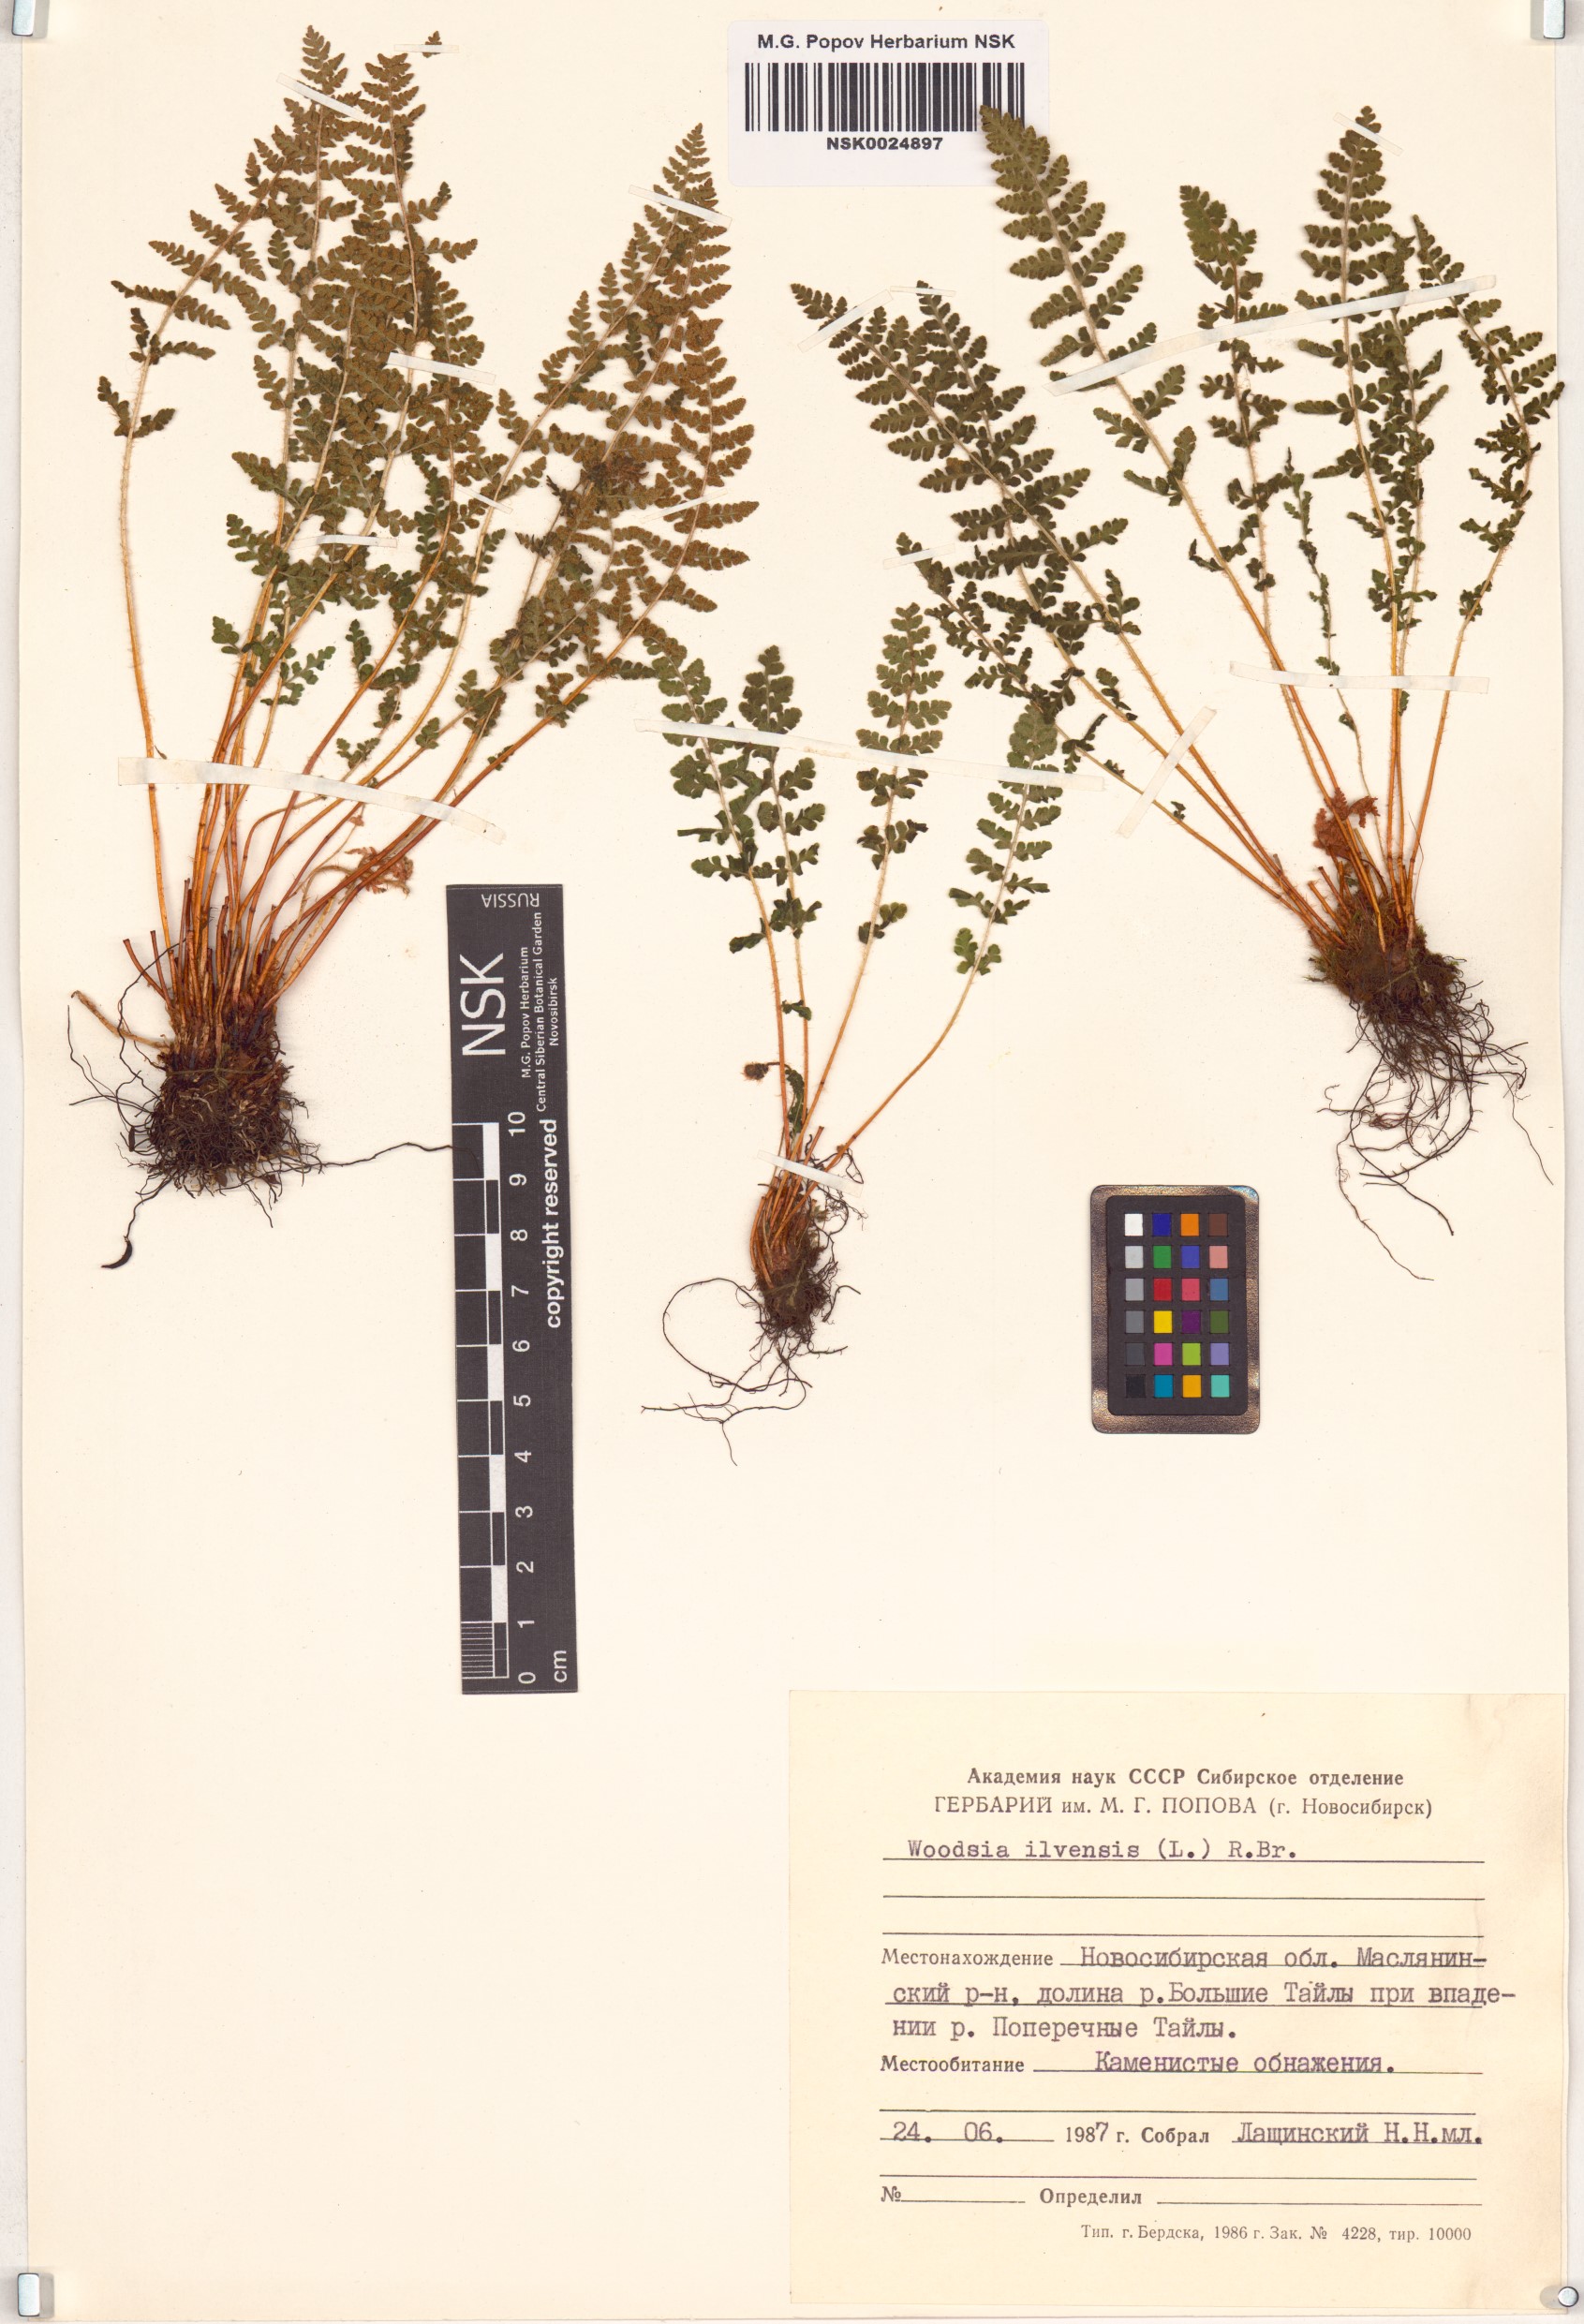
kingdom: Plantae
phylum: Tracheophyta
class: Polypodiopsida
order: Polypodiales
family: Woodsiaceae
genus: Woodsia
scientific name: Woodsia ilvensis
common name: Fragrant woodsia
